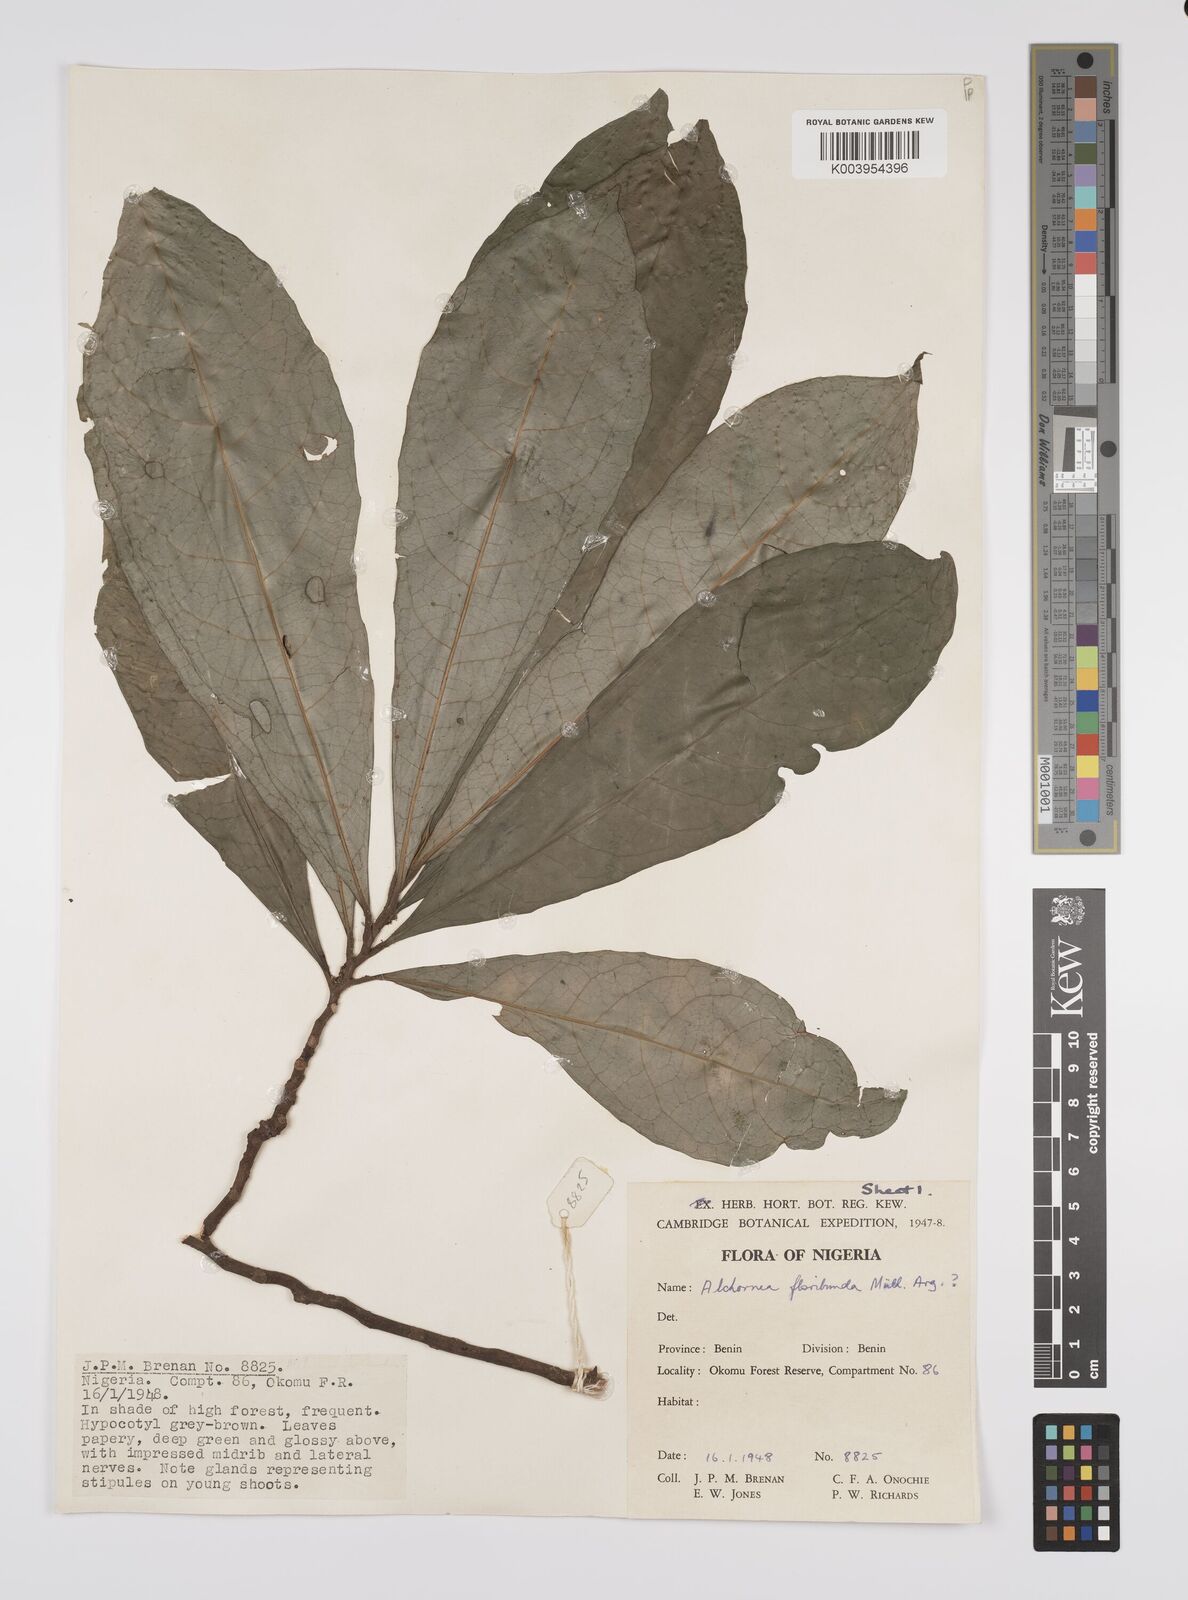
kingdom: Plantae
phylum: Tracheophyta
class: Magnoliopsida
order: Malpighiales
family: Euphorbiaceae
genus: Alchornea
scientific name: Alchornea floribunda
